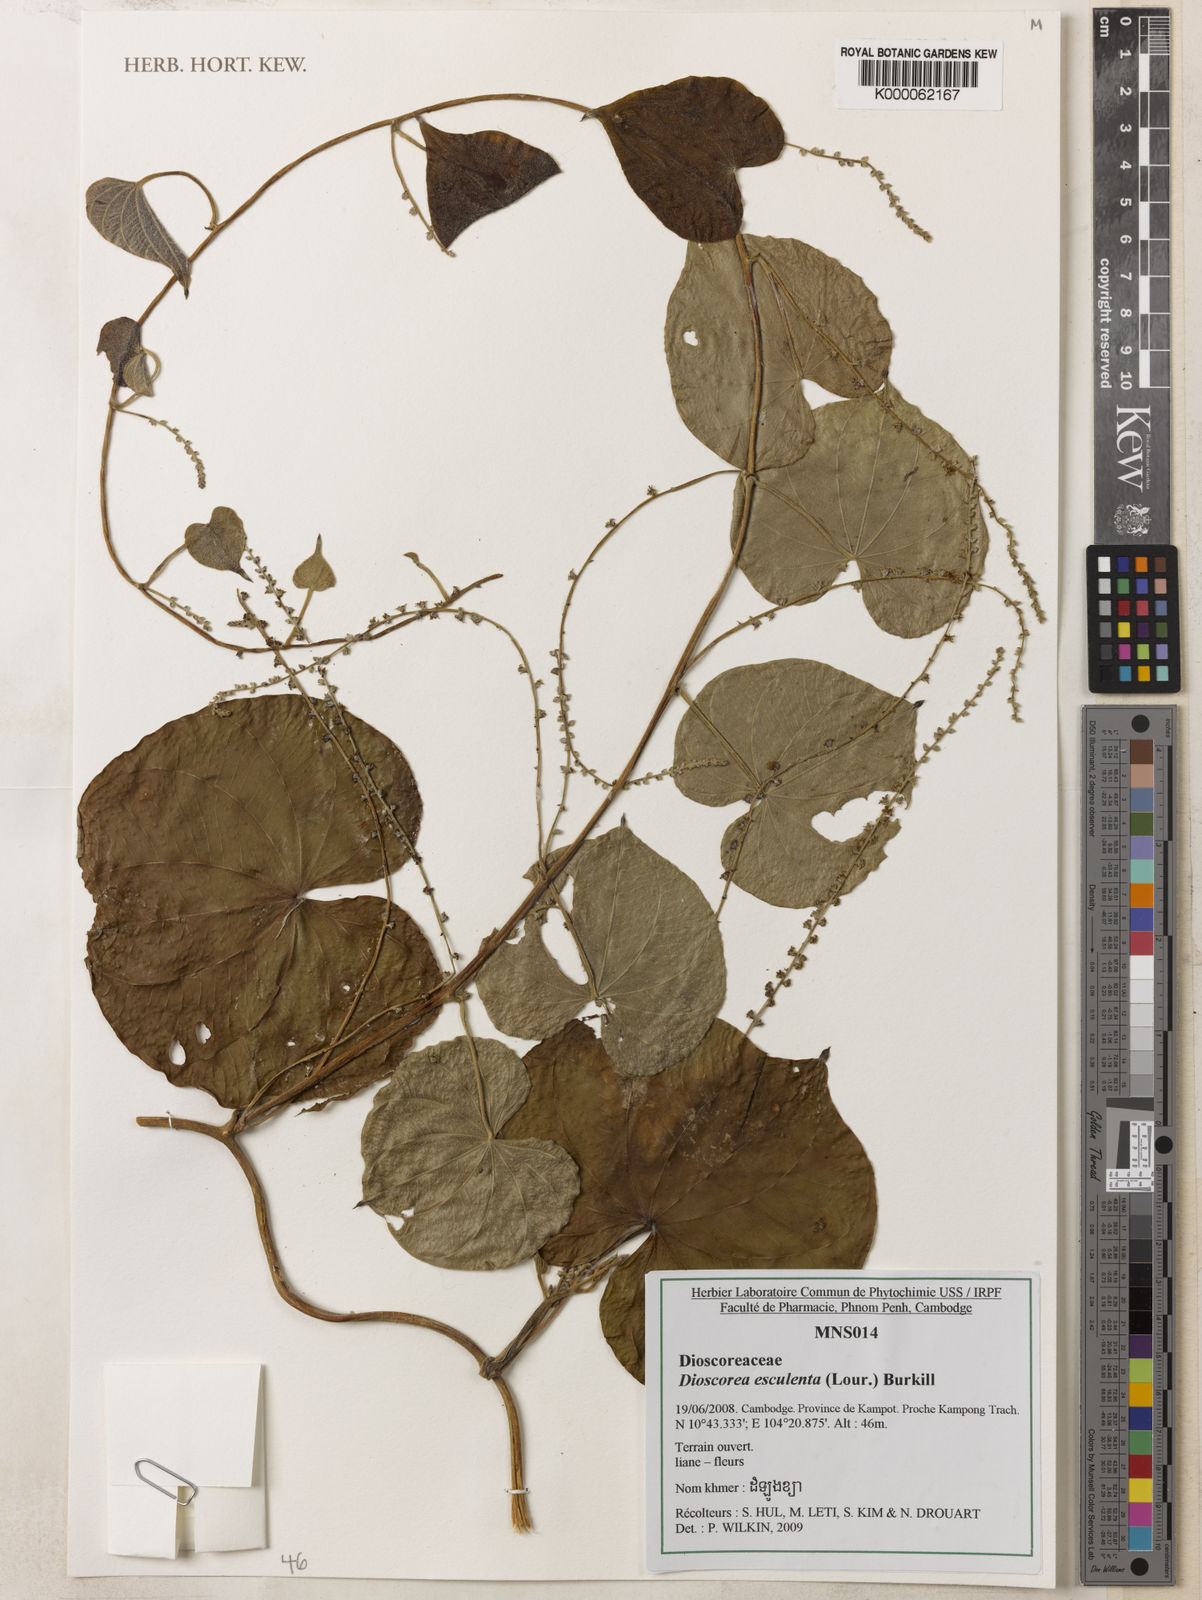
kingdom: Plantae
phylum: Tracheophyta
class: Liliopsida
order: Dioscoreales
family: Dioscoreaceae
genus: Dioscorea
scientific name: Dioscorea esculenta
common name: Chinese yam
